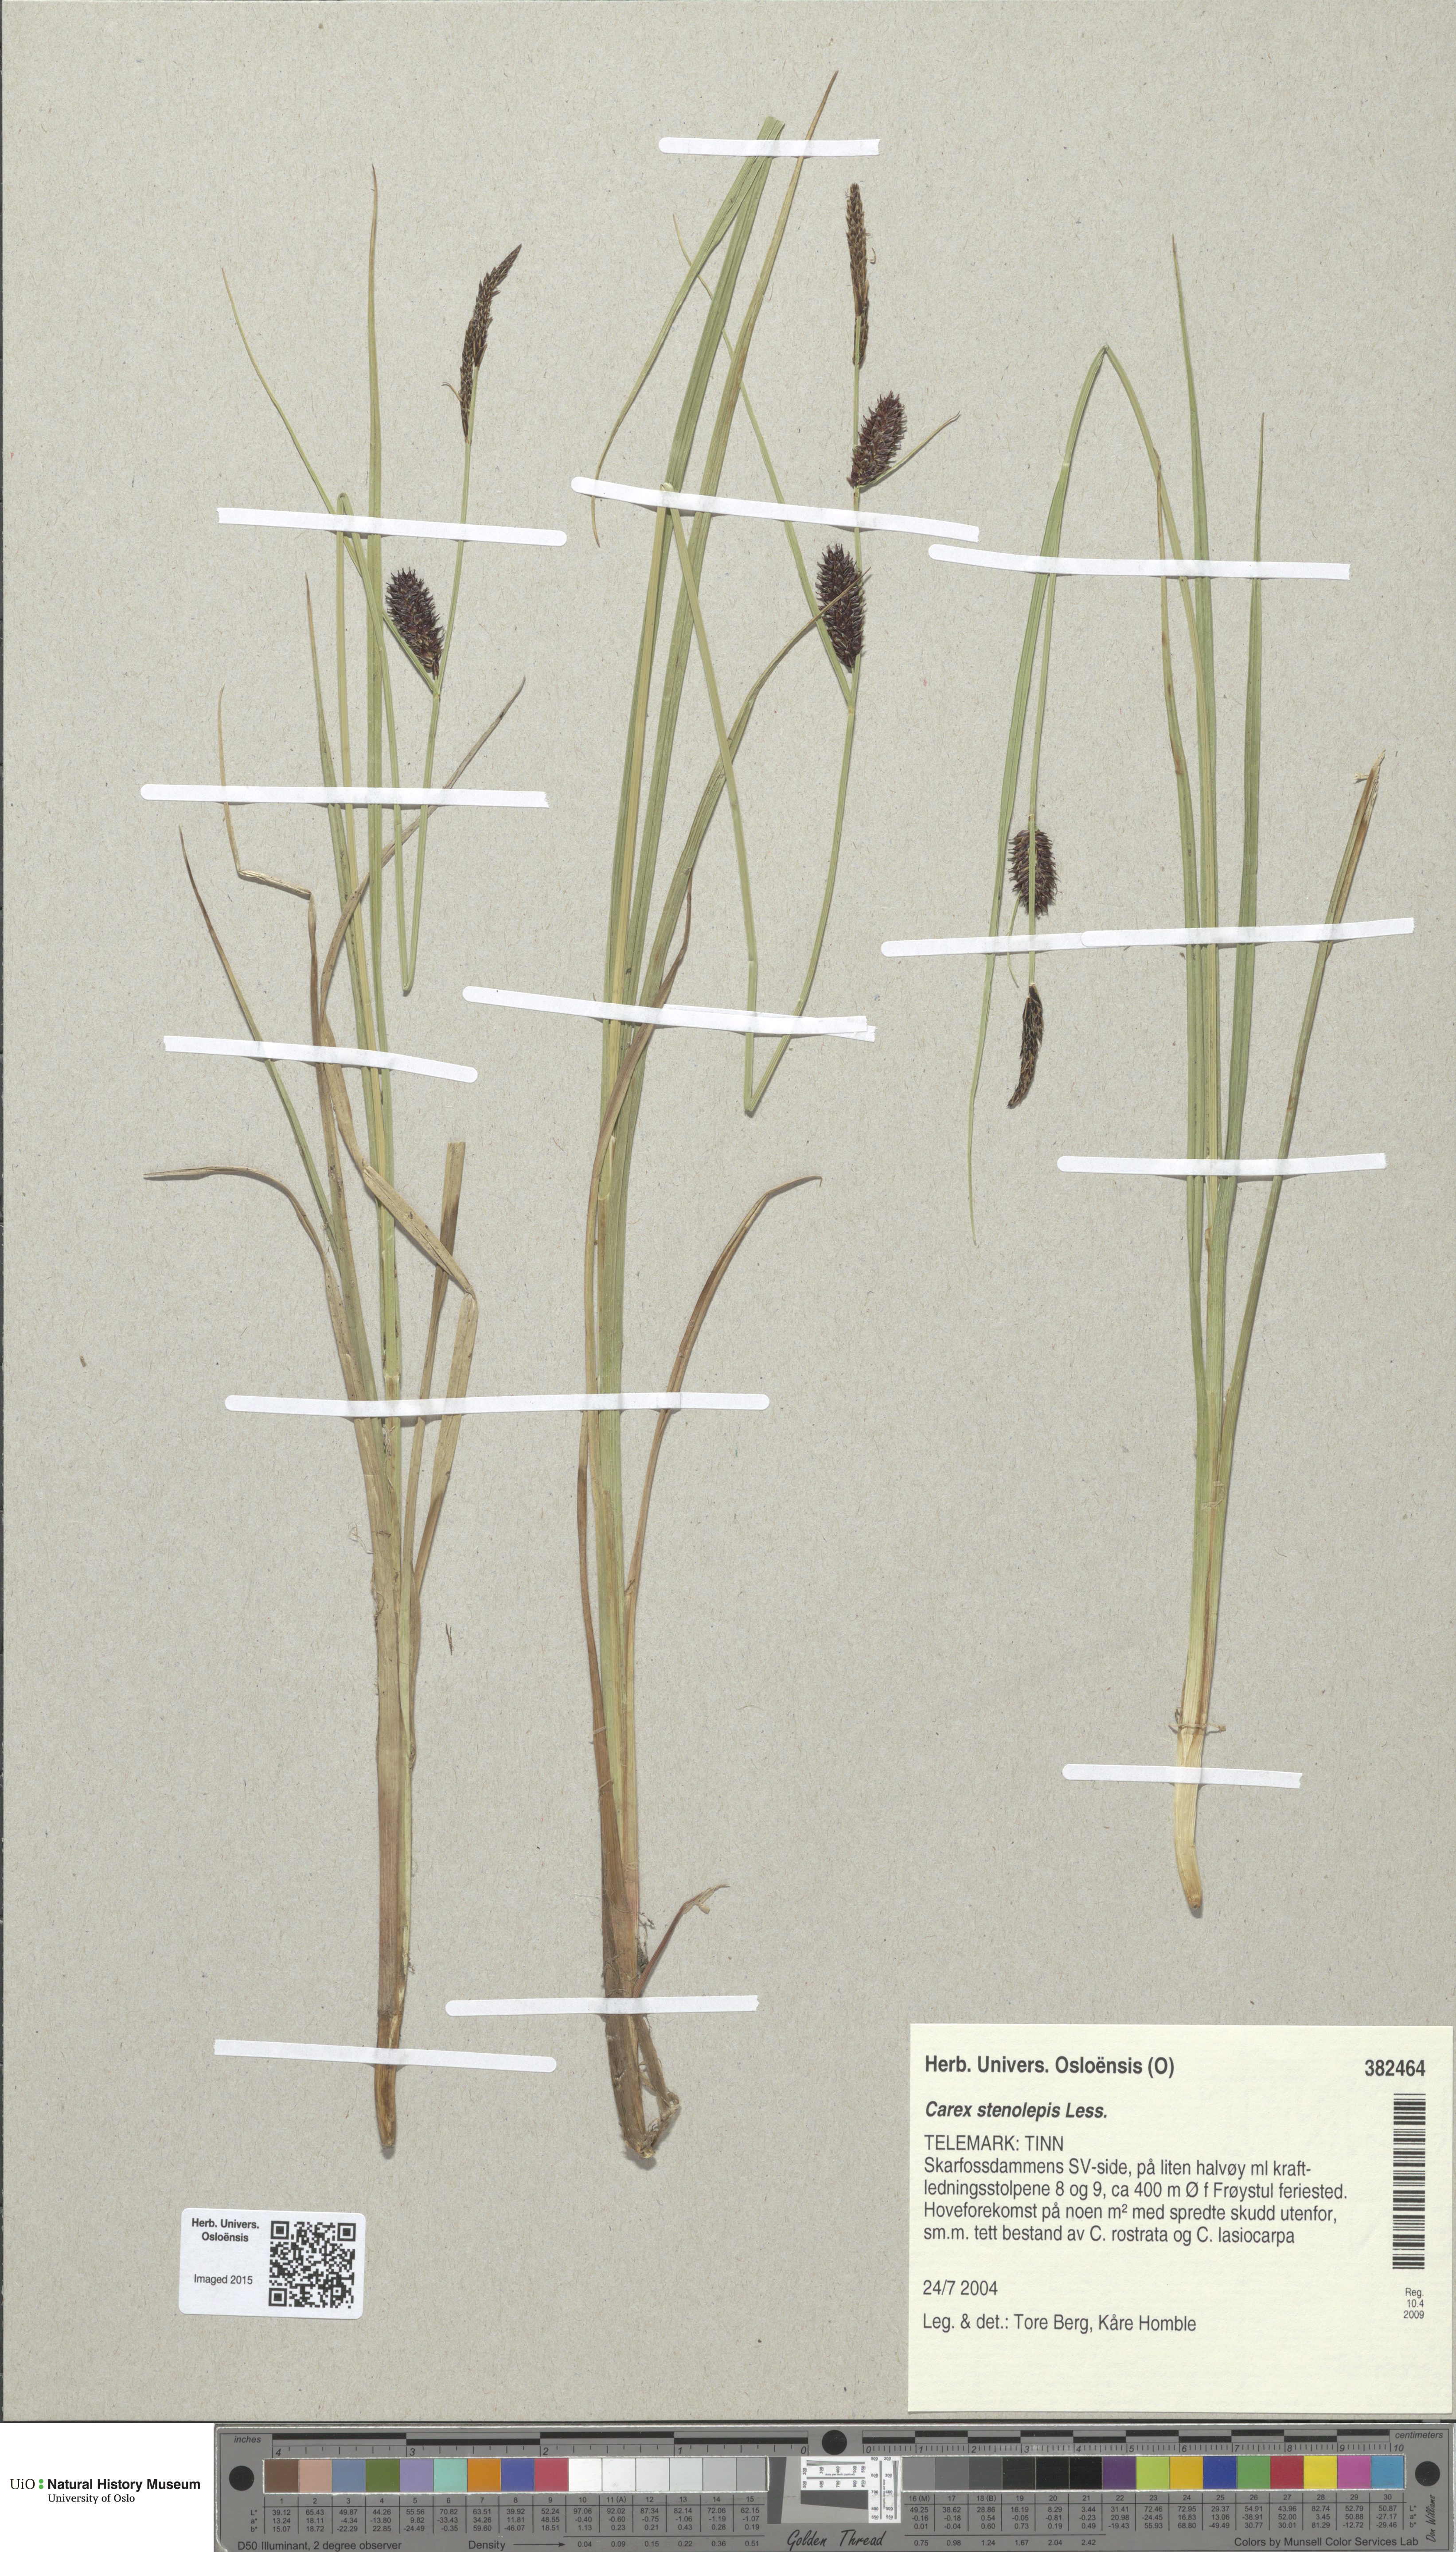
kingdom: Plantae
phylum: Tracheophyta
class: Liliopsida
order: Poales
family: Cyperaceae
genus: Carex
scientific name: Carex grahamii
